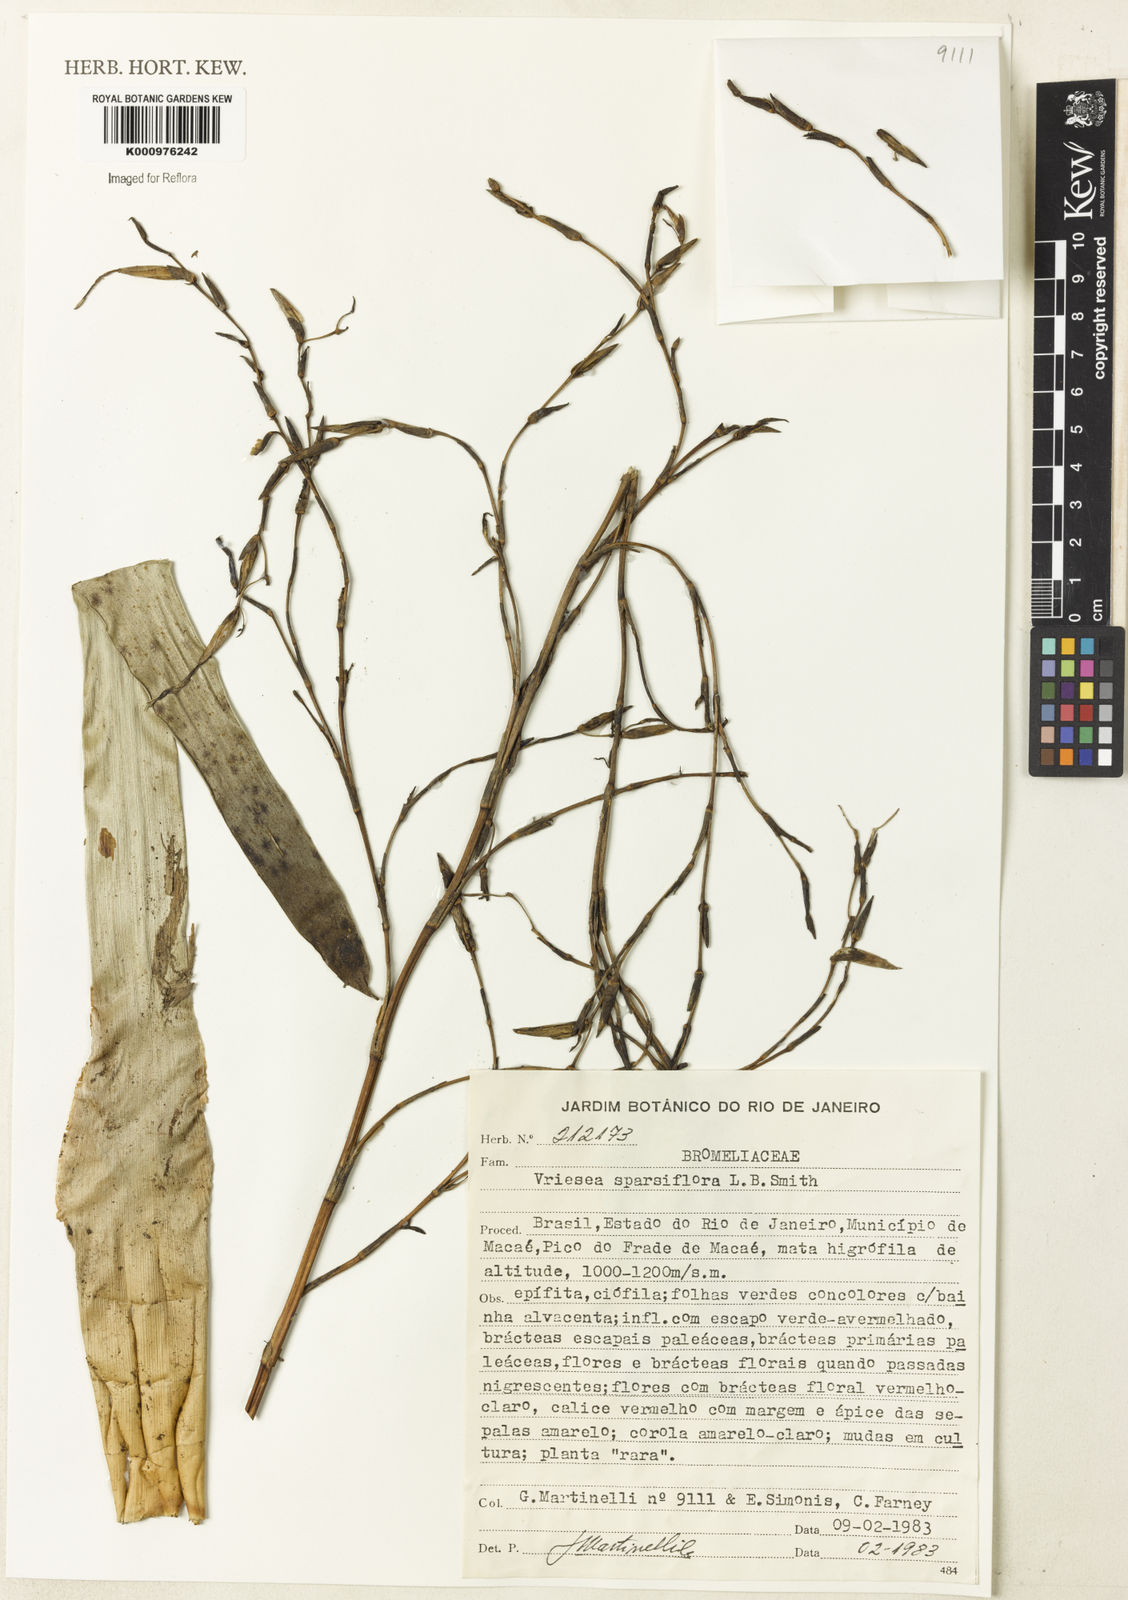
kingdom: Plantae
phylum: Tracheophyta
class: Liliopsida
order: Poales
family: Bromeliaceae
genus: Vriesea
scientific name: Vriesea sparsiflora
